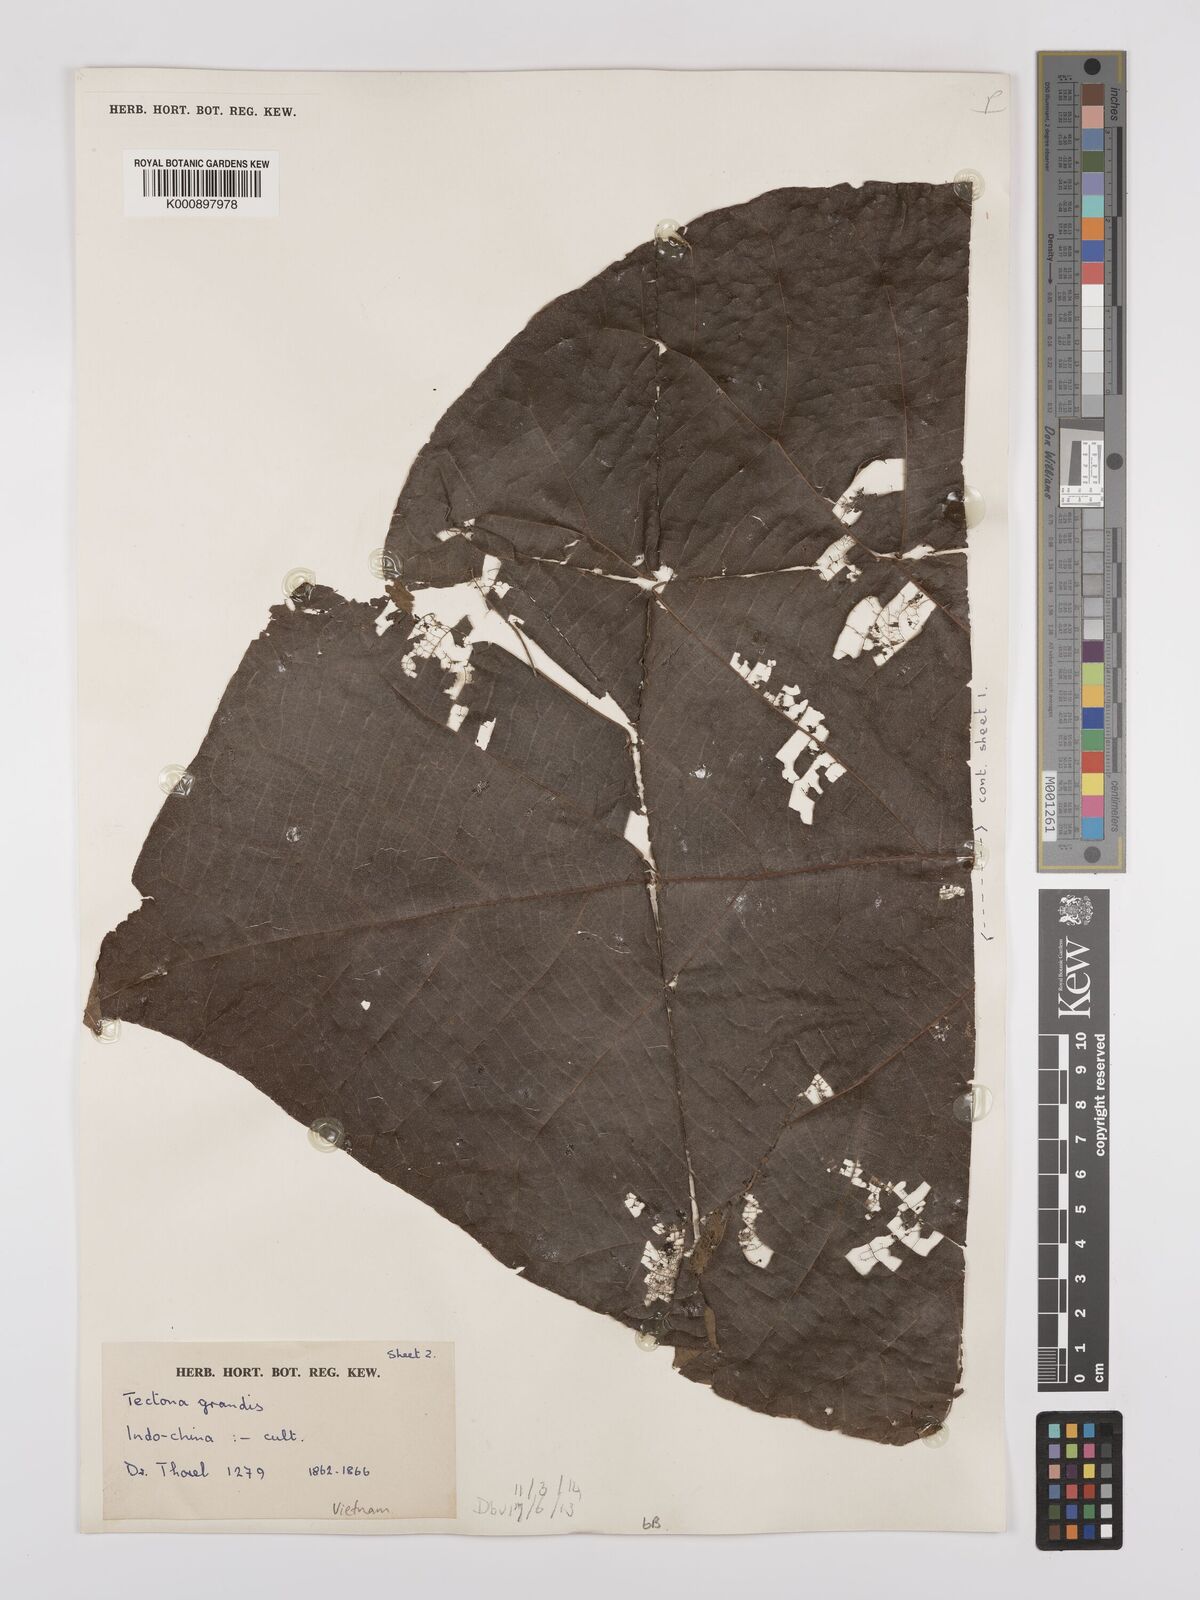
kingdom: Plantae
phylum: Tracheophyta
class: Magnoliopsida
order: Lamiales
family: Lamiaceae
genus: Tectona
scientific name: Tectona grandis
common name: Teak
